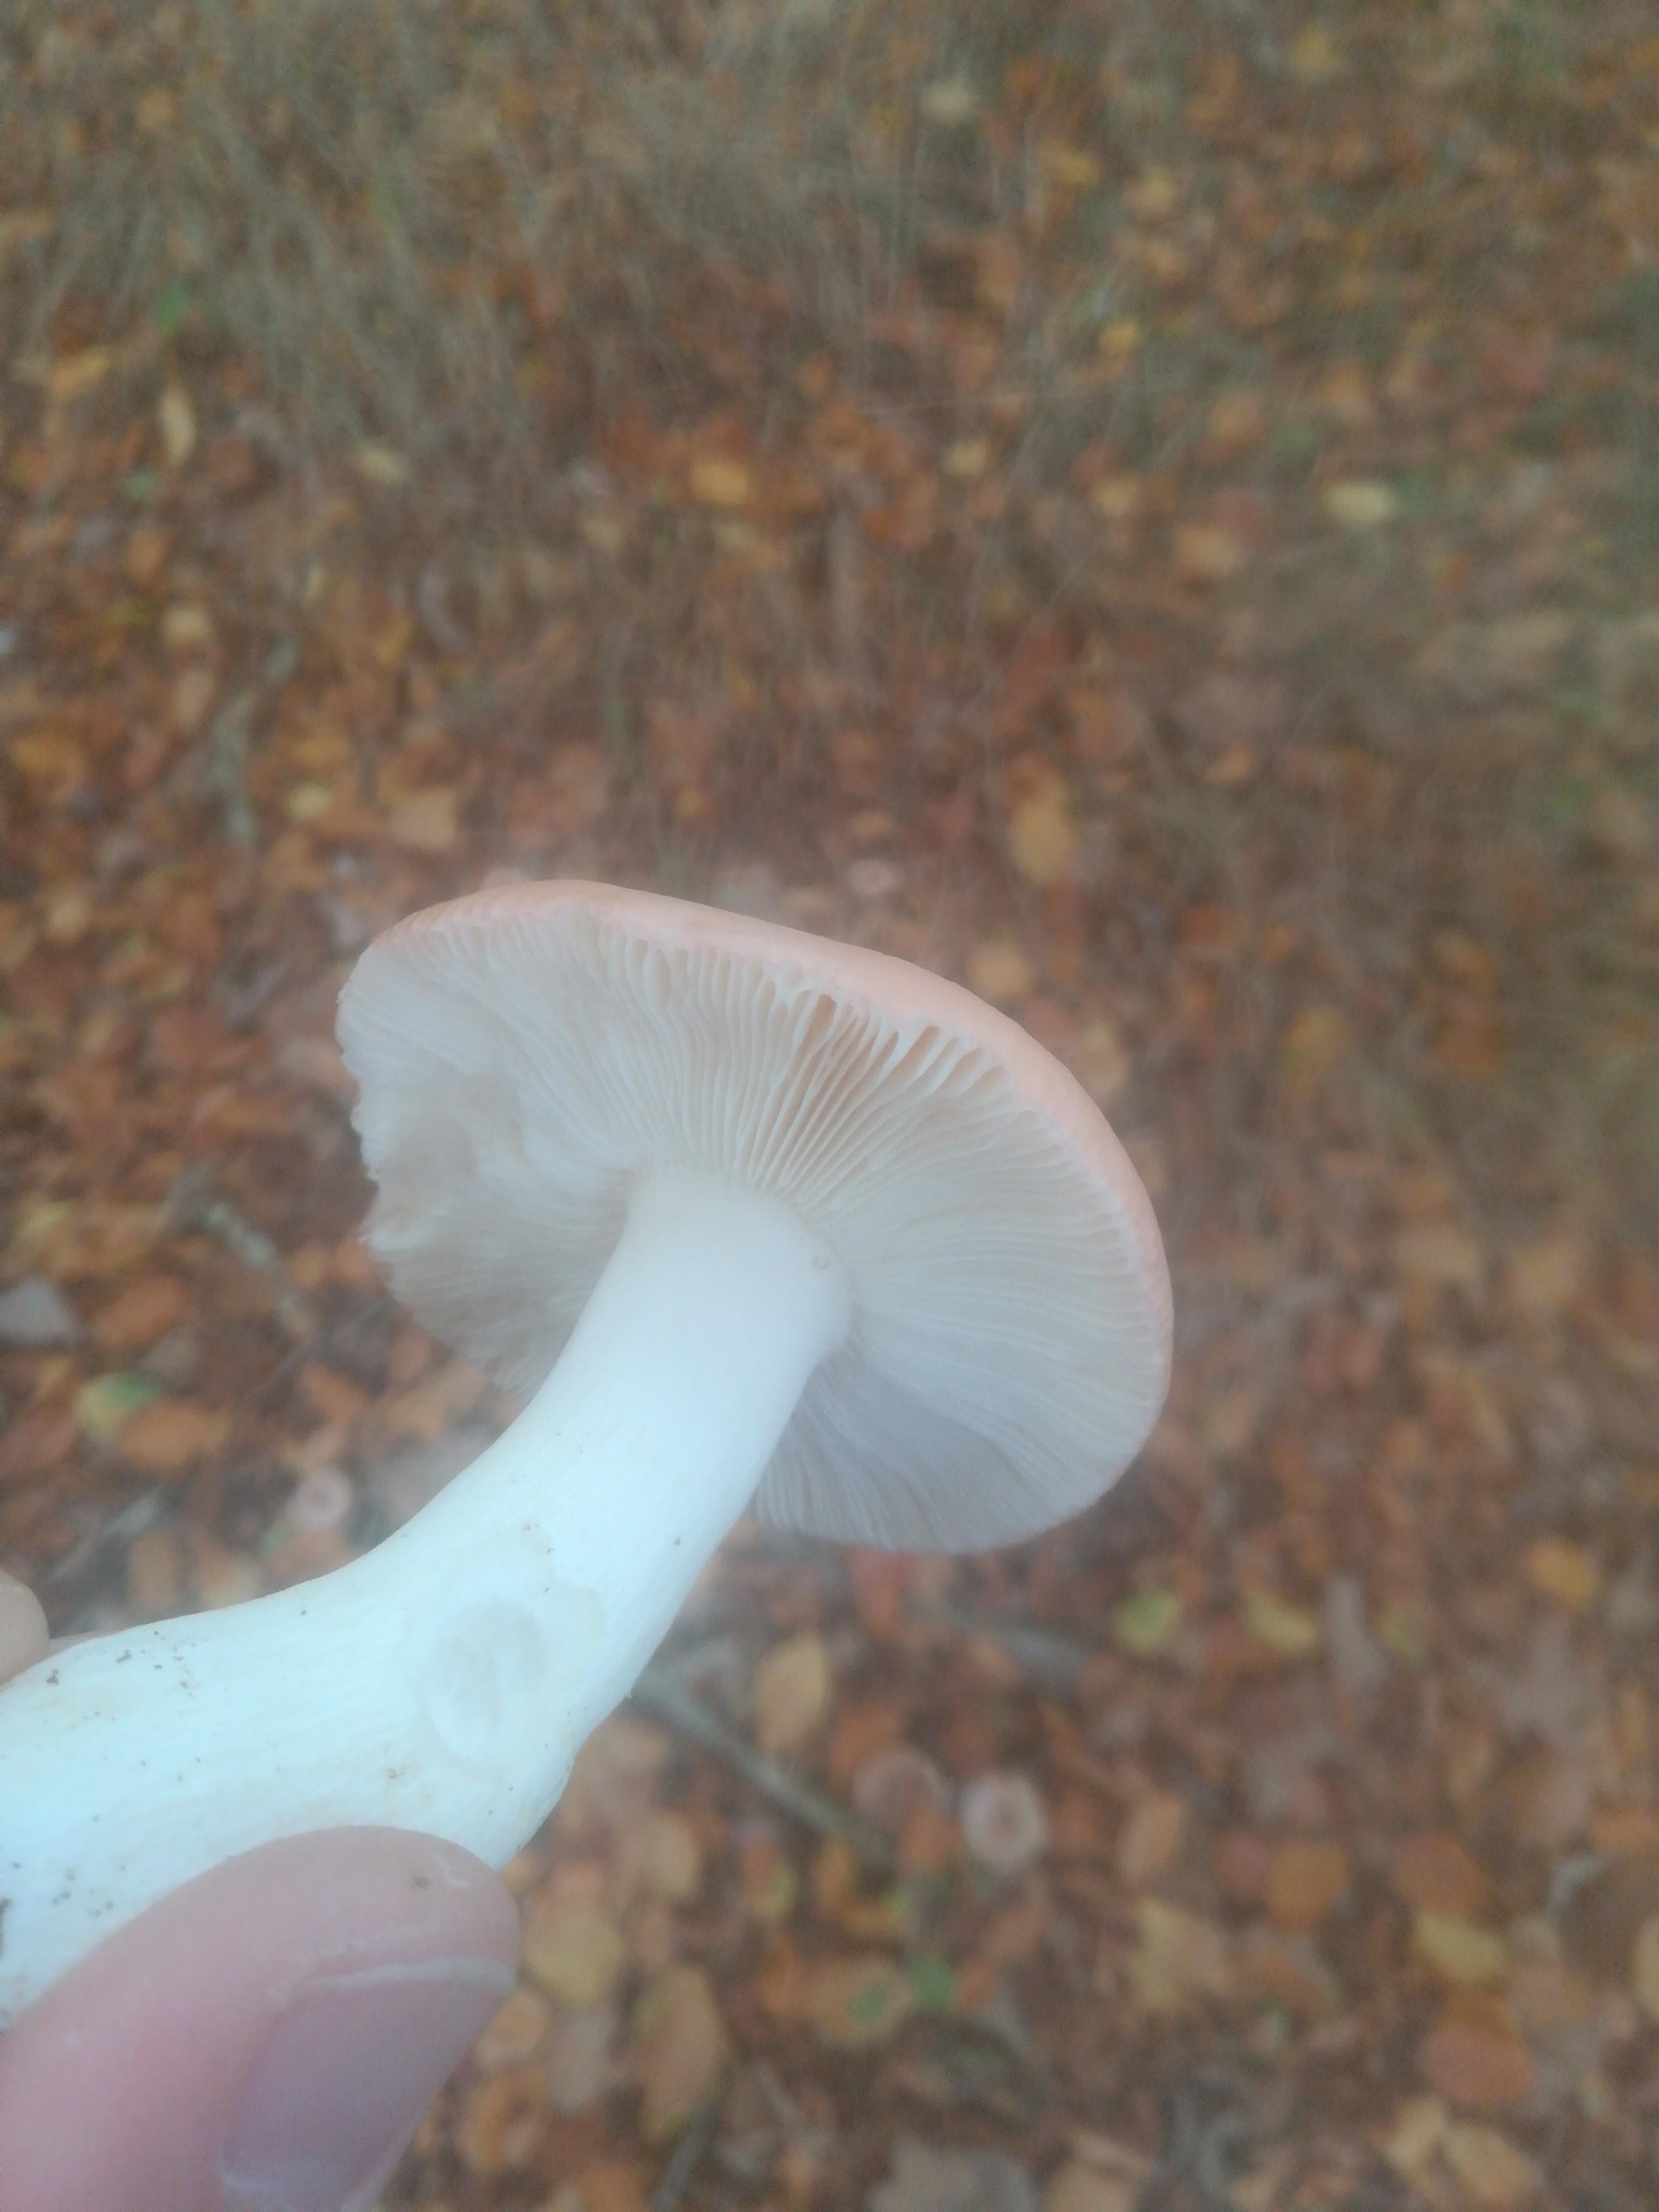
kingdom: Fungi
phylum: Basidiomycota
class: Agaricomycetes
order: Russulales
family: Russulaceae
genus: Russula
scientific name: Russula
